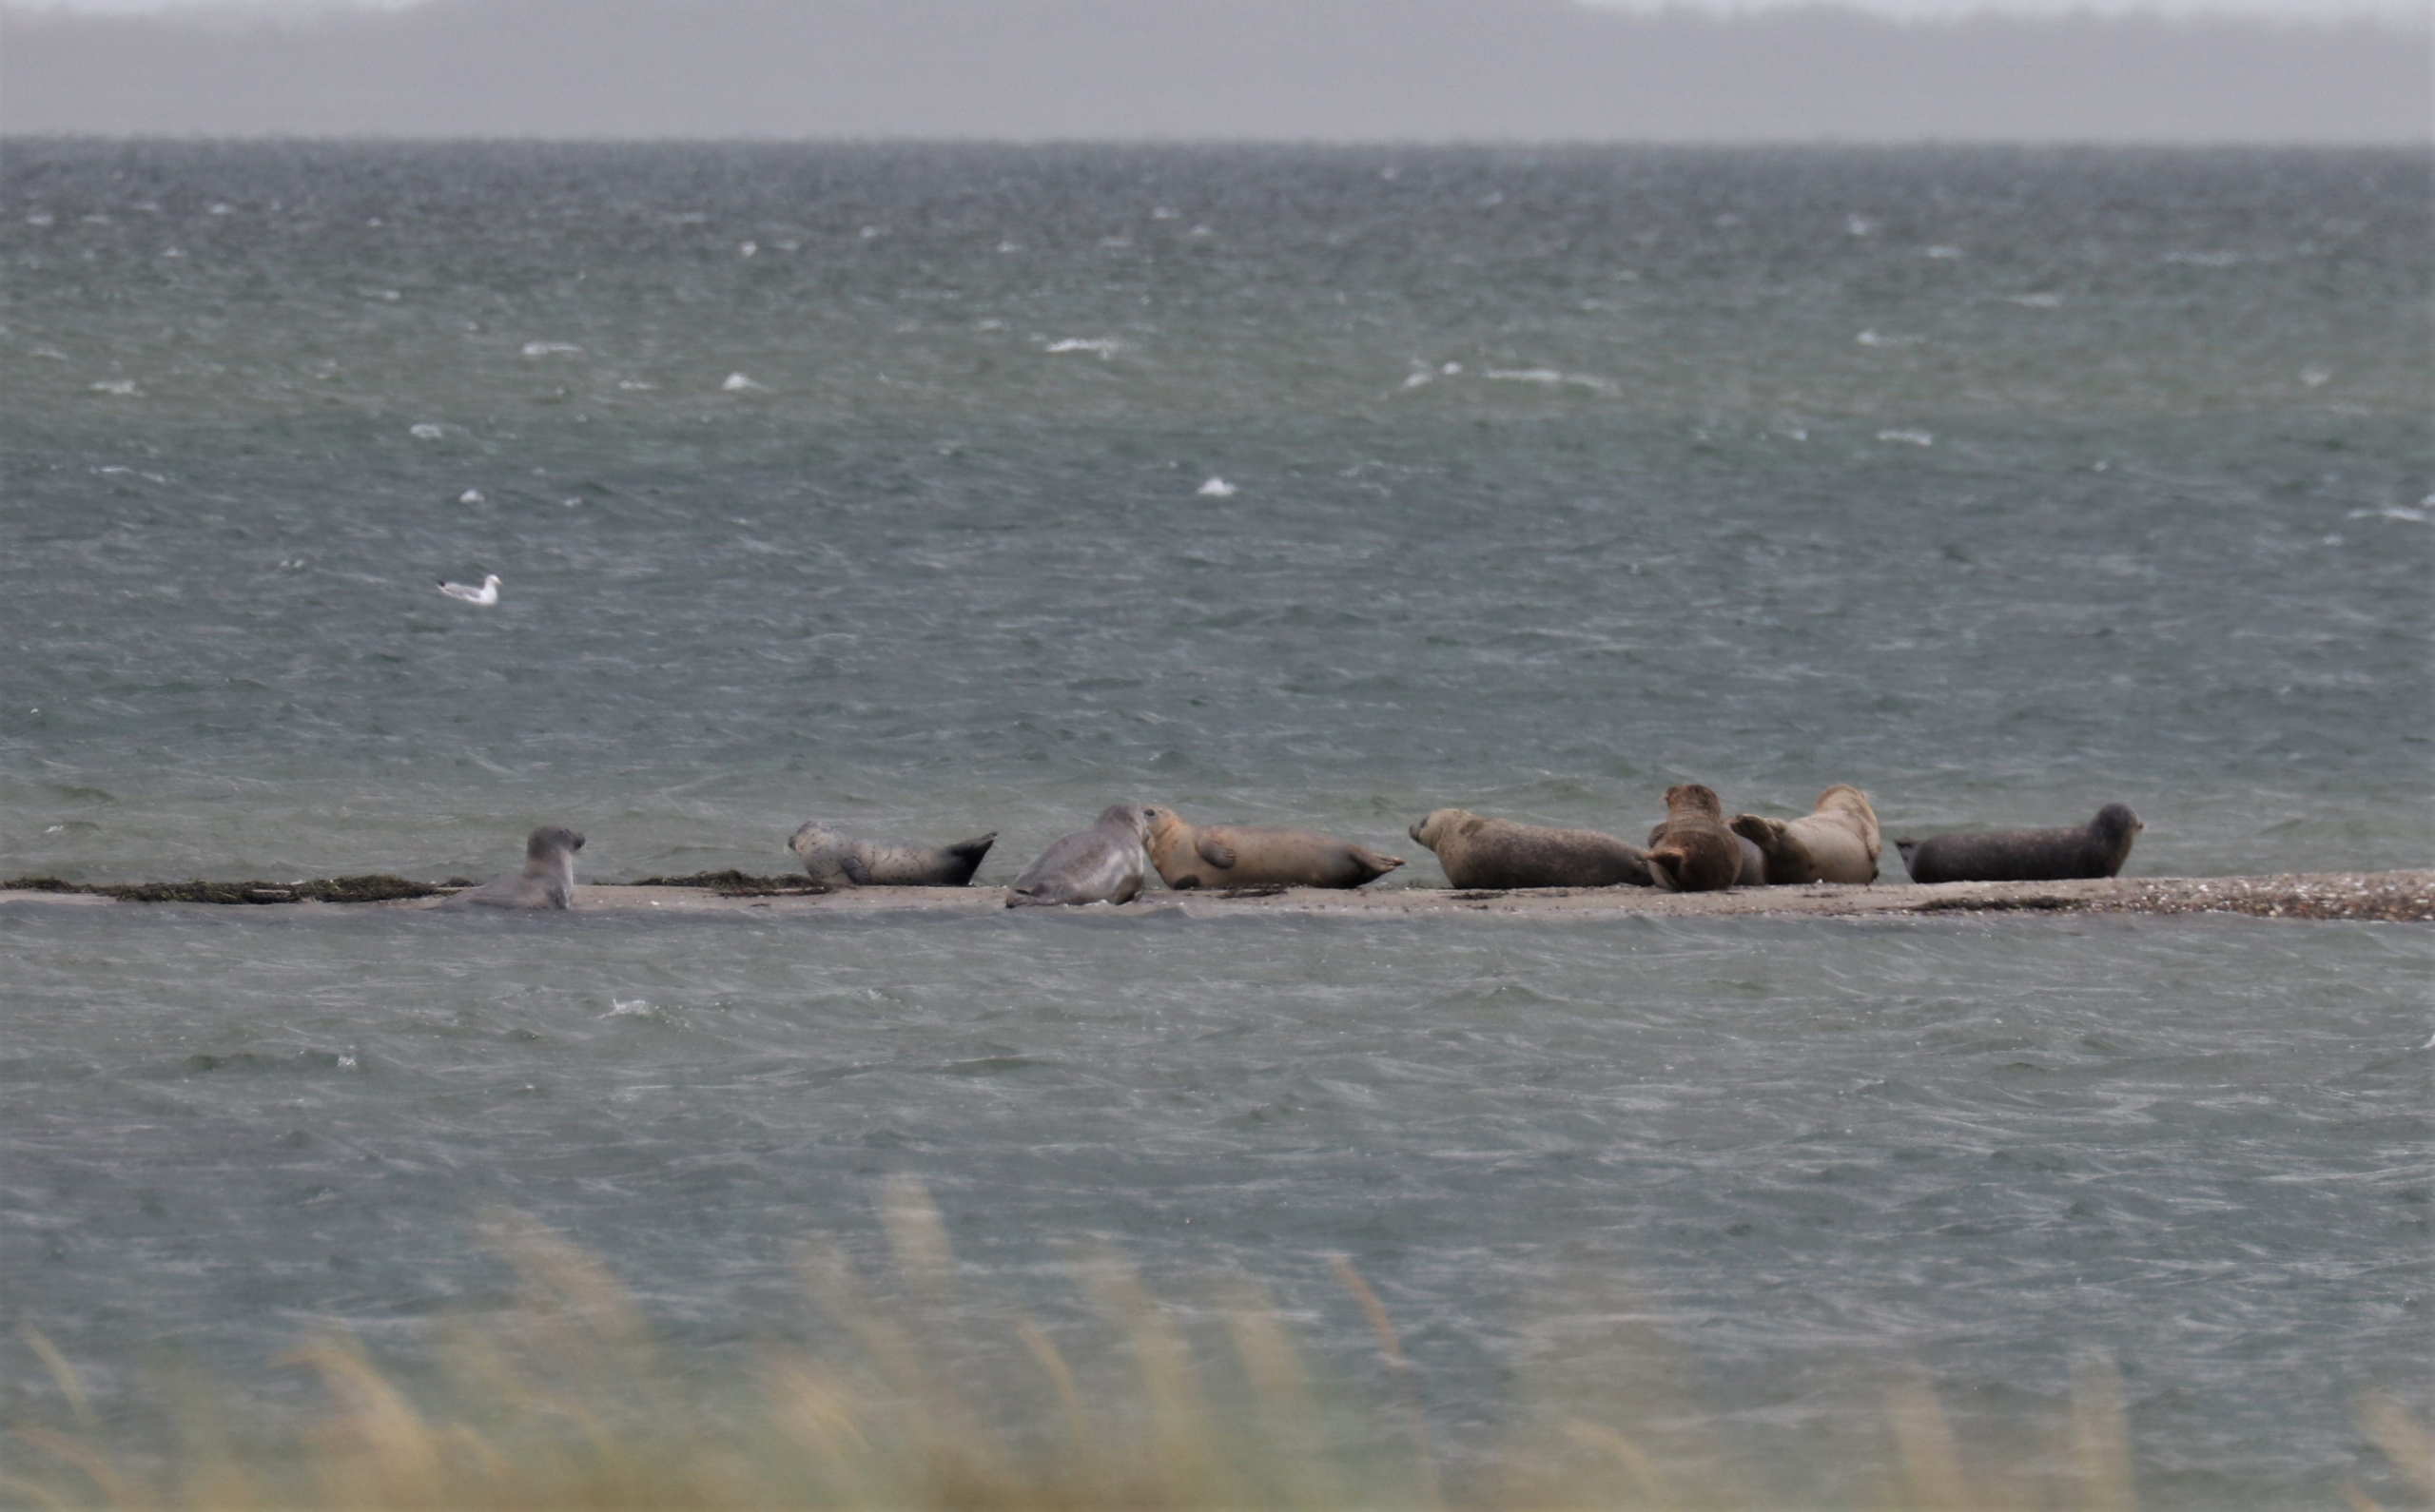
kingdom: Animalia
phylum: Chordata
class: Mammalia
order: Carnivora
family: Phocidae
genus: Phoca
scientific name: Phoca vitulina
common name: Spættet sæl
